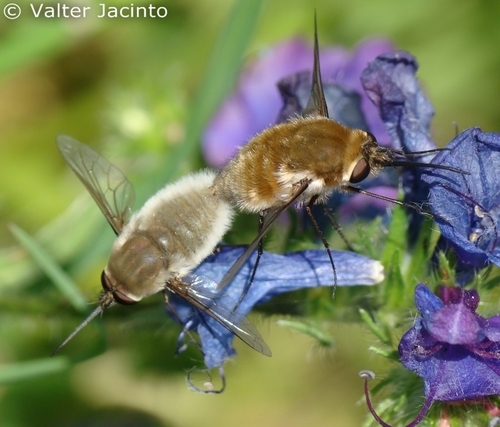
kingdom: Animalia
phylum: Arthropoda
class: Insecta
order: Diptera
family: Bombyliidae
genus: Dischistus
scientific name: Dischistus biroi
